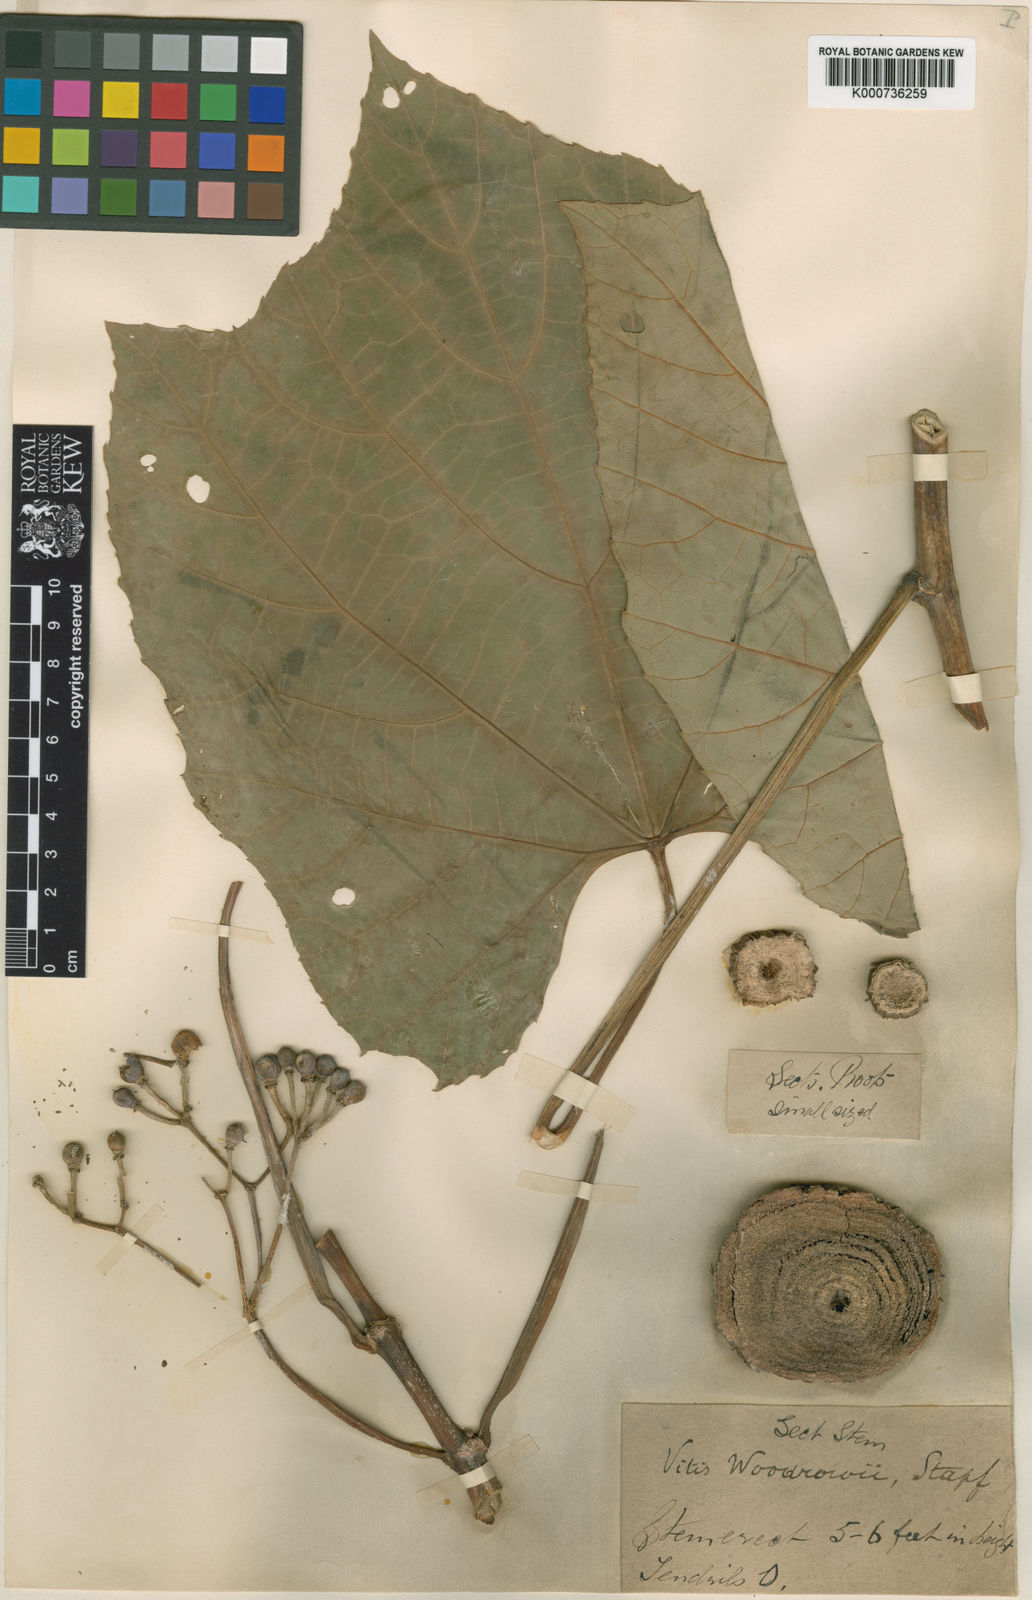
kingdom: Plantae
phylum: Tracheophyta
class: Magnoliopsida
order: Vitales
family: Vitaceae
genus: Cissus
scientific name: Cissus
